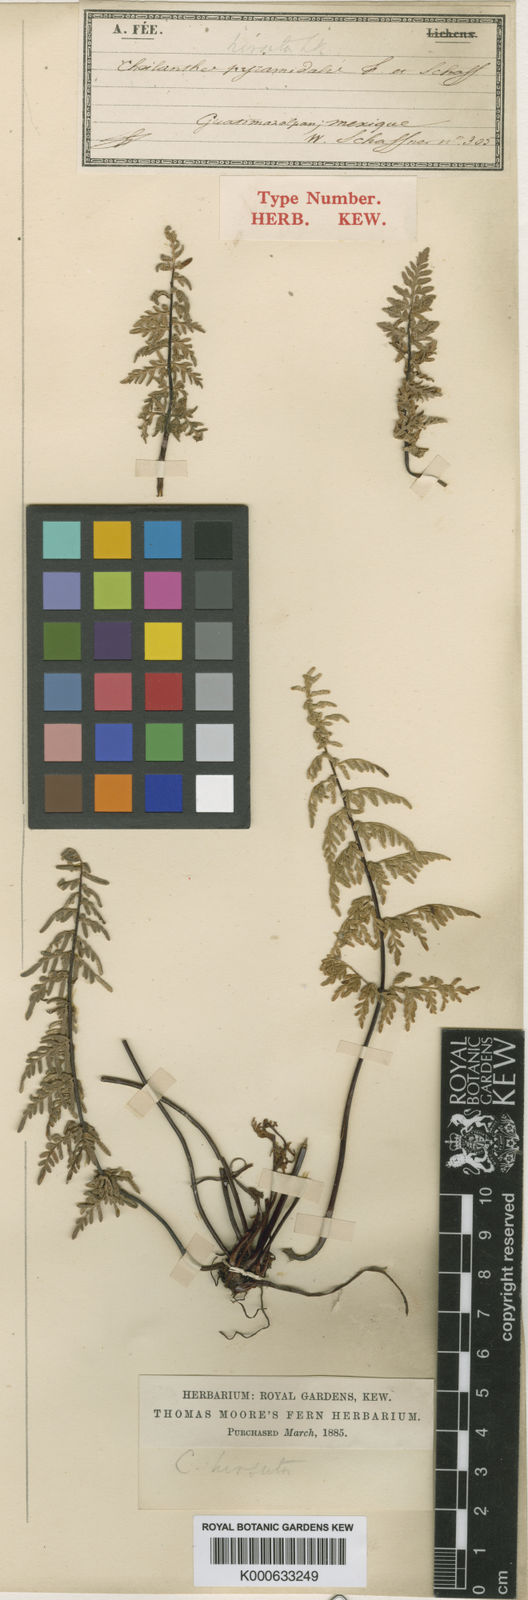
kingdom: Plantae
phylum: Tracheophyta
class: Polypodiopsida
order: Polypodiales
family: Pteridaceae
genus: Gaga
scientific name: Gaga marginata
